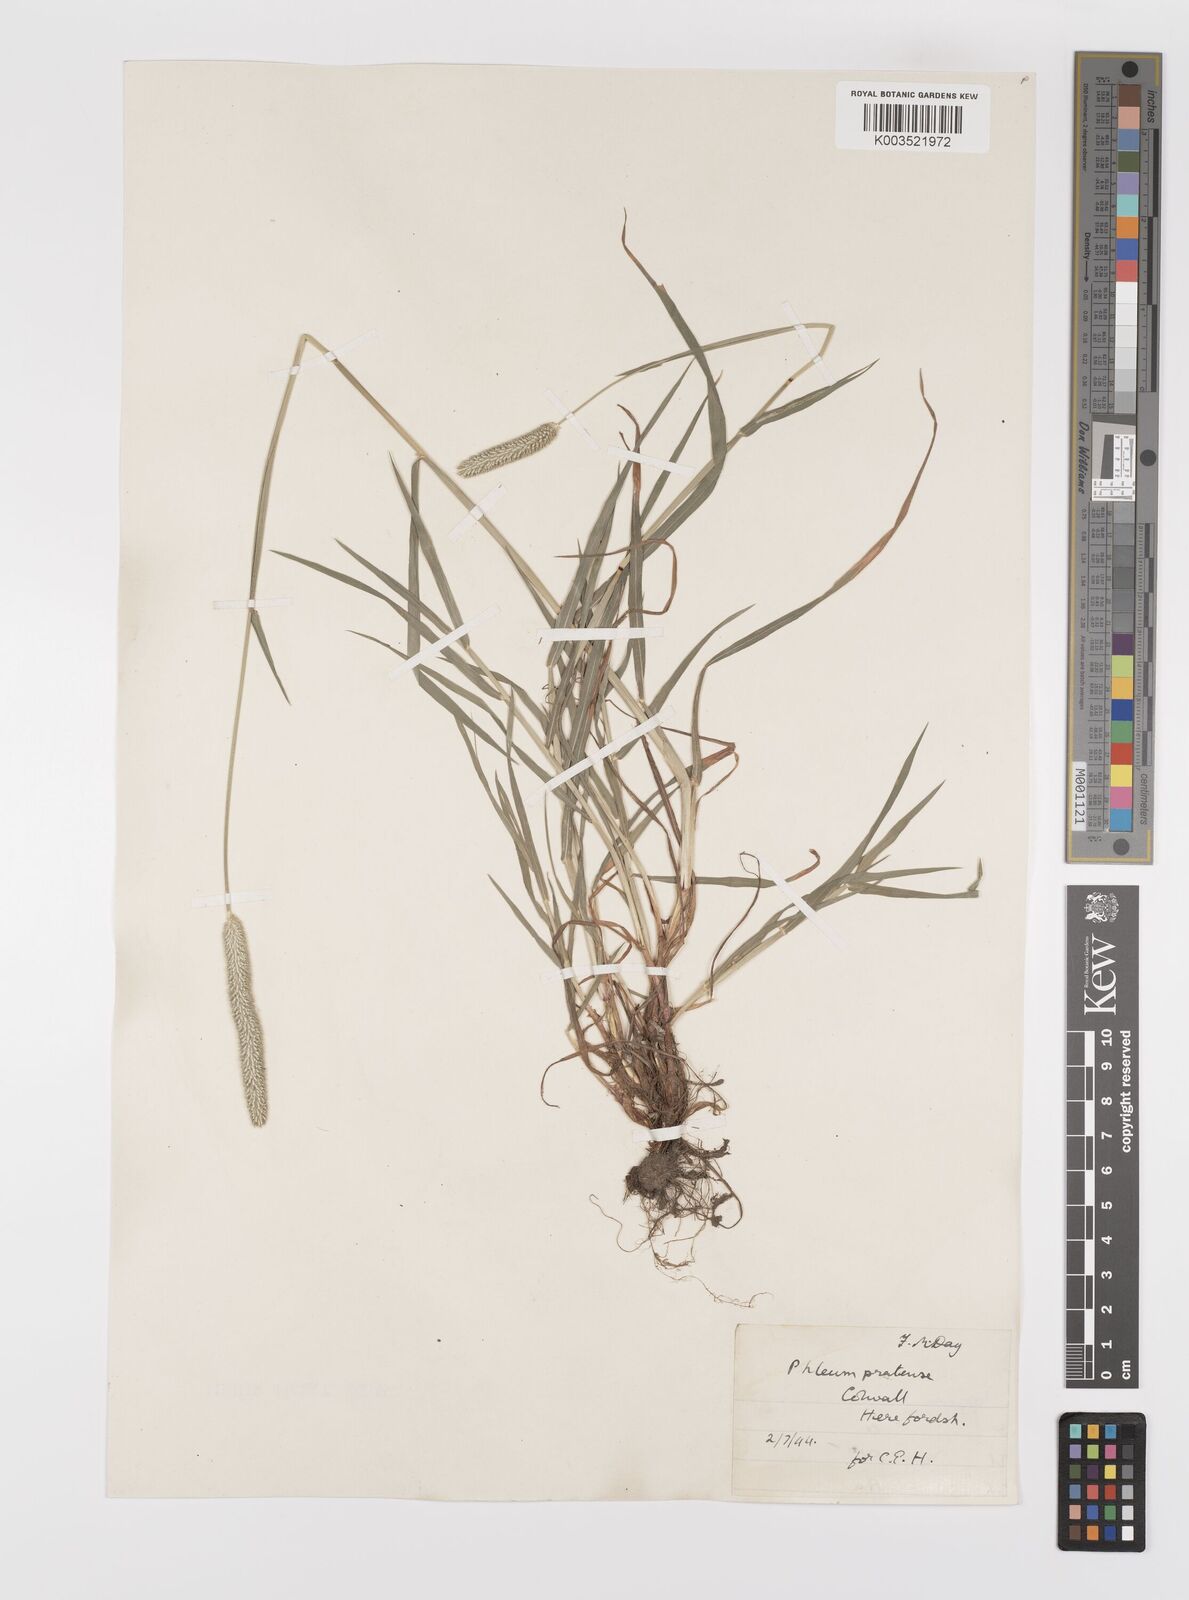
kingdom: Plantae
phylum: Tracheophyta
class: Liliopsida
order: Poales
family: Poaceae
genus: Phleum
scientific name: Phleum bertolonii
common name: Smaller cat's-tail
